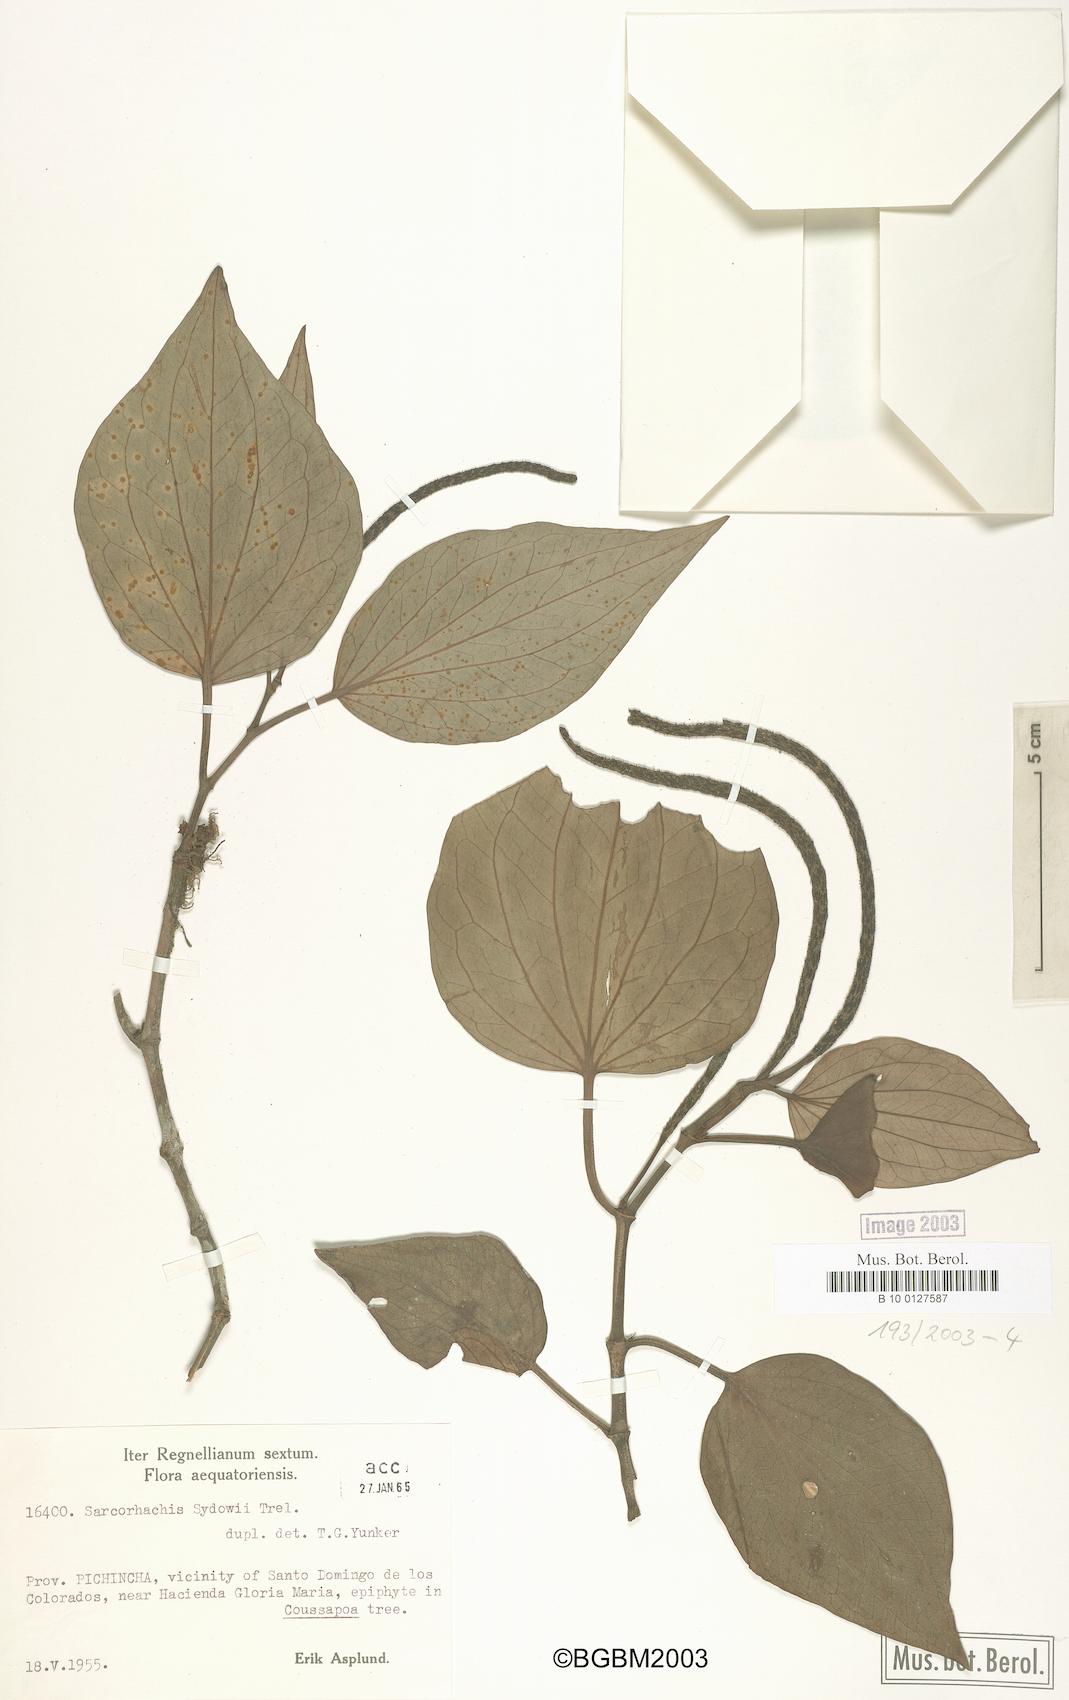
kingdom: Plantae
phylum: Tracheophyta
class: Magnoliopsida
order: Piperales
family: Piperaceae
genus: Manekia
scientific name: Manekia incurva
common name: Wild black-pepper
